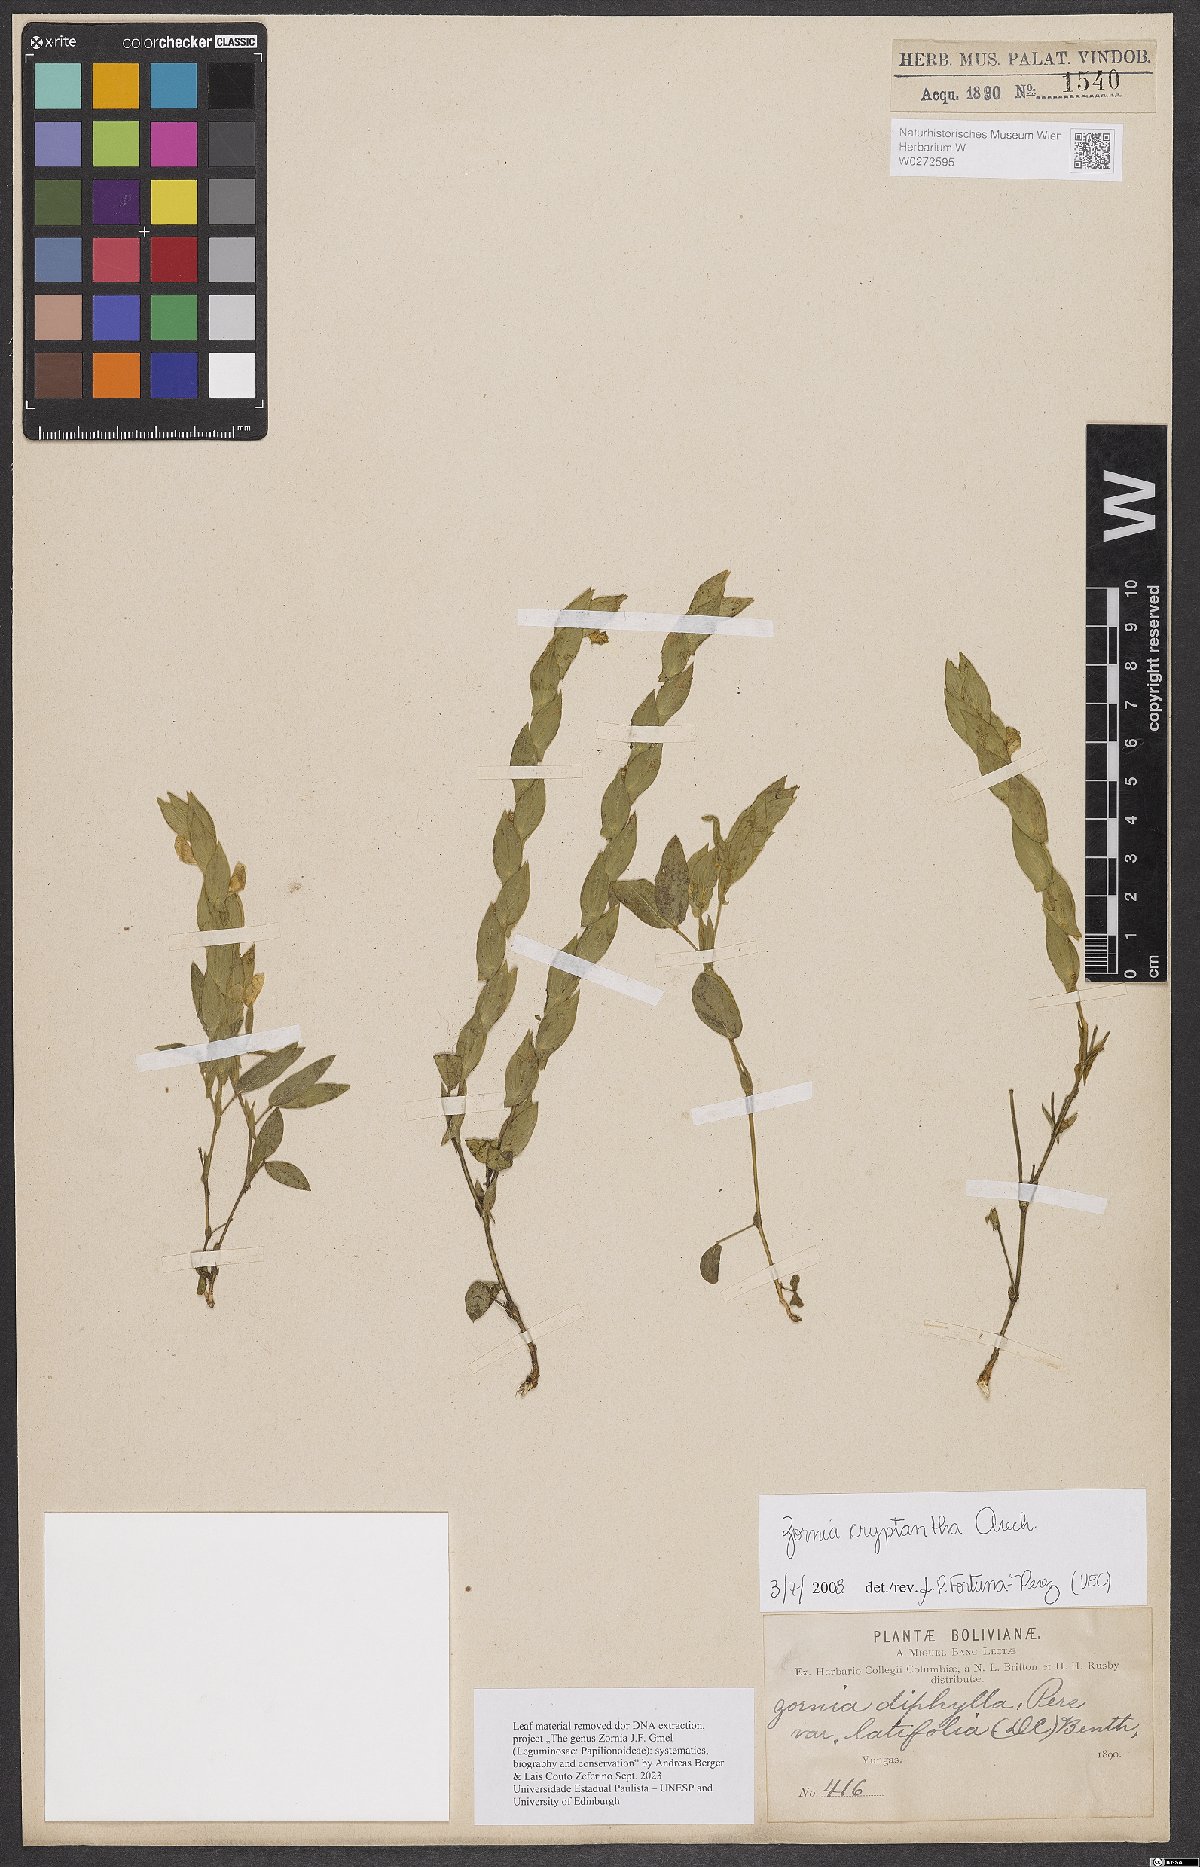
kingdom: Plantae
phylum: Tracheophyta
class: Magnoliopsida
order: Fabales
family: Fabaceae
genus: Zornia
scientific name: Zornia cryptantha
